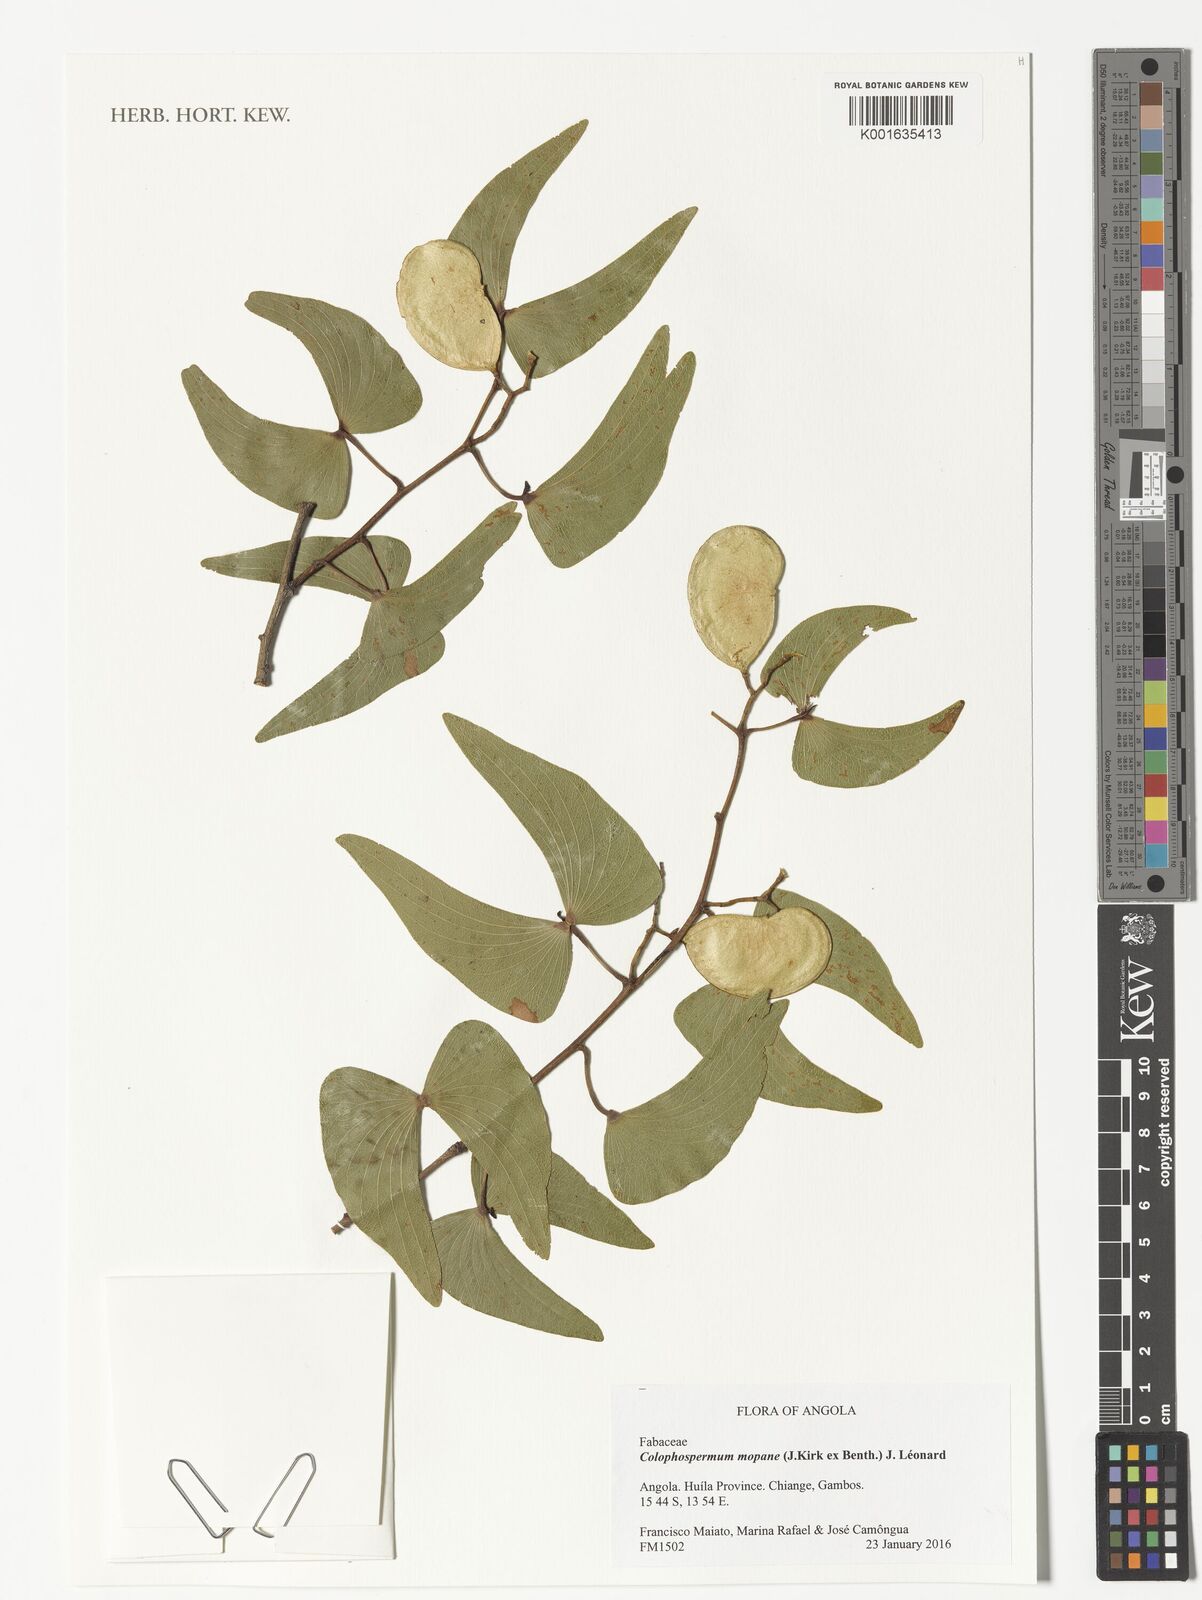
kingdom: Plantae
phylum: Tracheophyta
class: Magnoliopsida
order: Fabales
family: Fabaceae
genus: Colophospermum
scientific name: Colophospermum mopane
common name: Mopane
